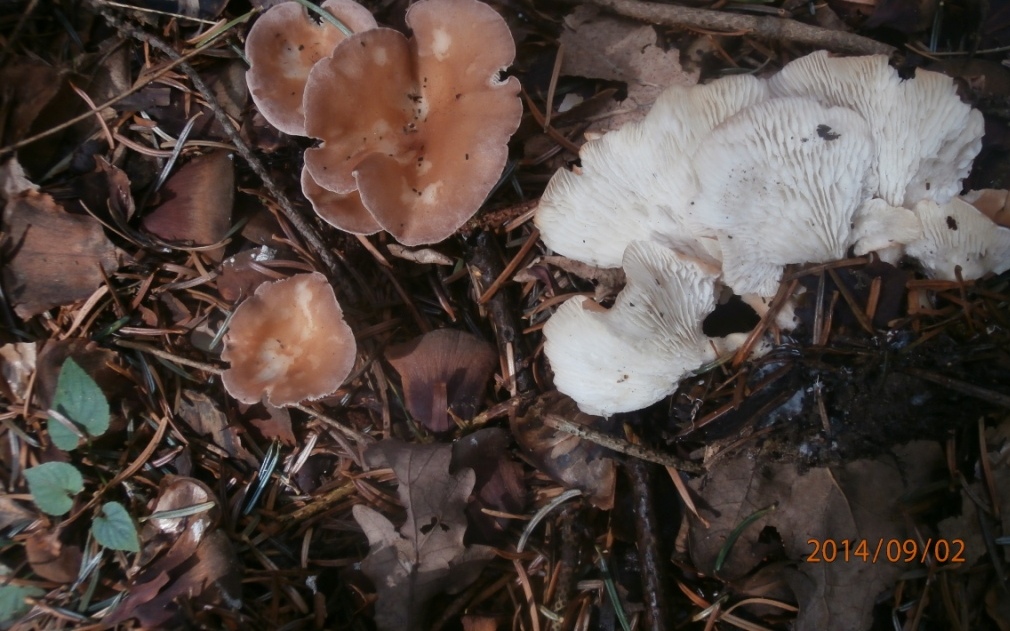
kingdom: Fungi
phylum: Basidiomycota
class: Agaricomycetes
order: Agaricales
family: Tricholomataceae
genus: Infundibulicybe
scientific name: Infundibulicybe gibba
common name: almindelig tragthat
